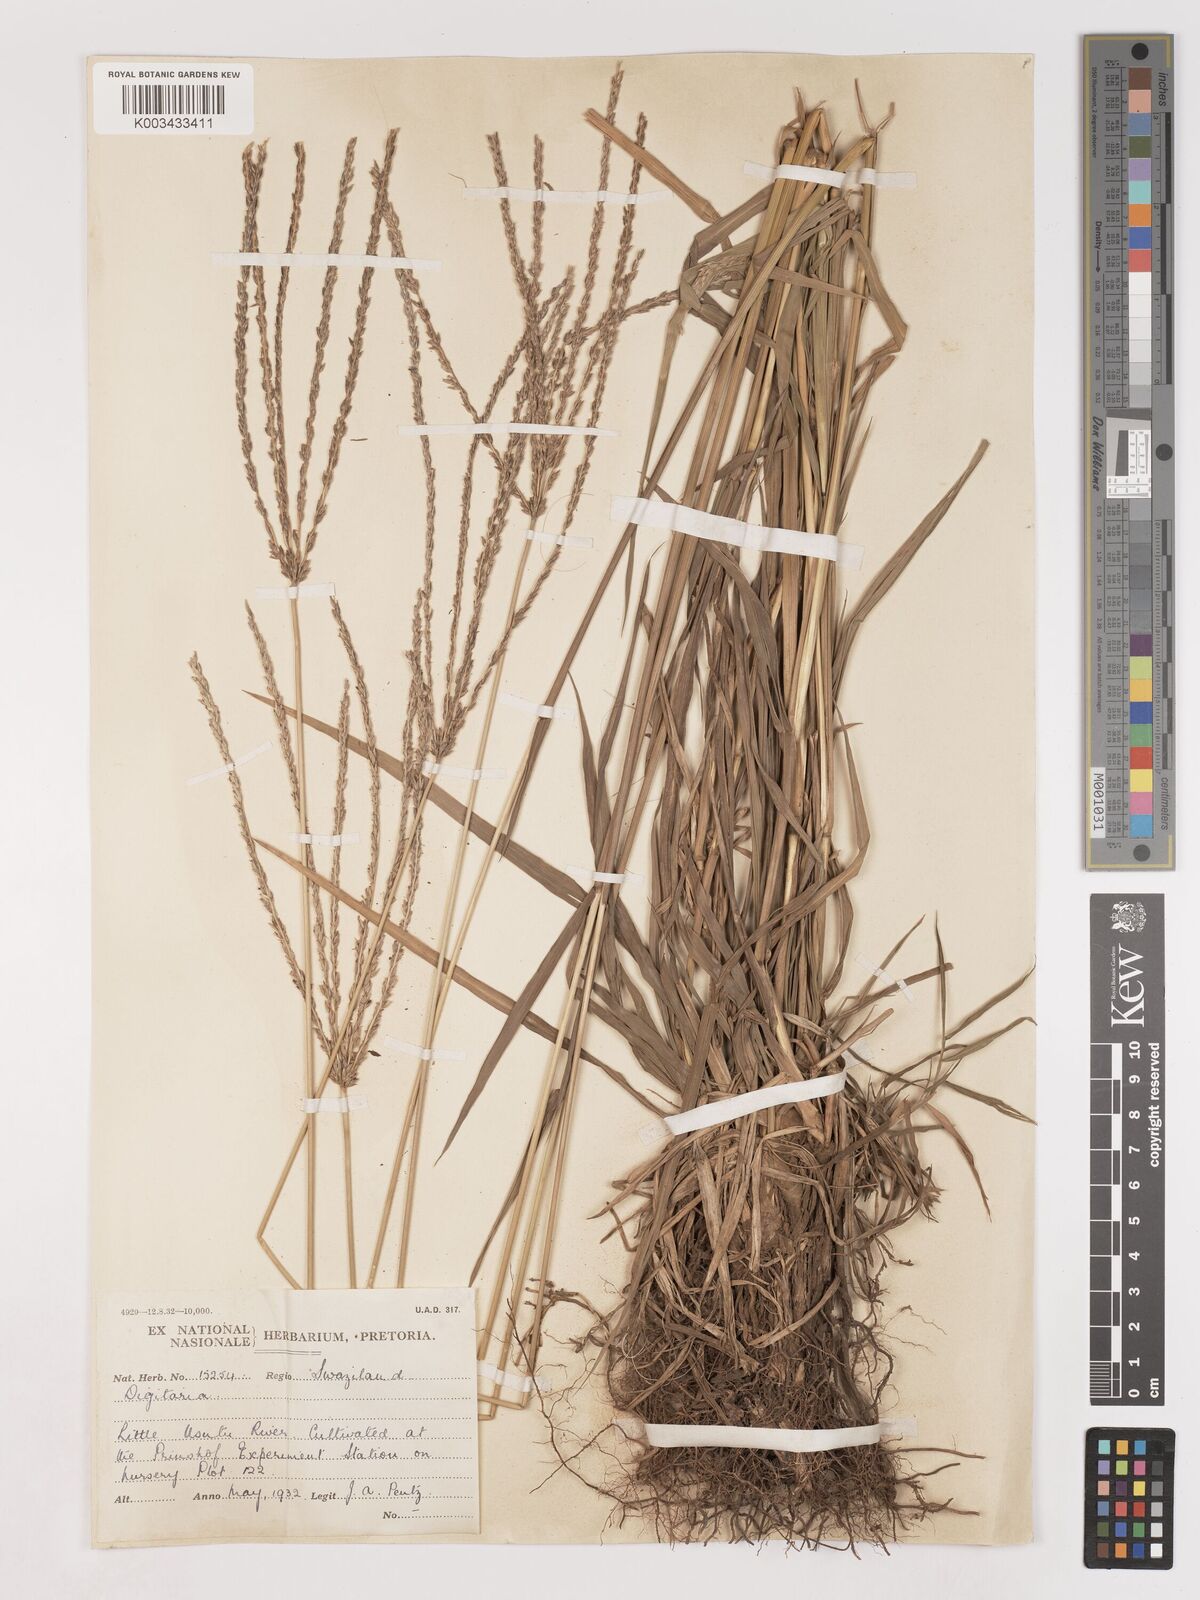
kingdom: Plantae
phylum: Tracheophyta
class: Liliopsida
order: Poales
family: Poaceae
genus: Digitaria
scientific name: Digitaria eriantha
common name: Digitgrass
